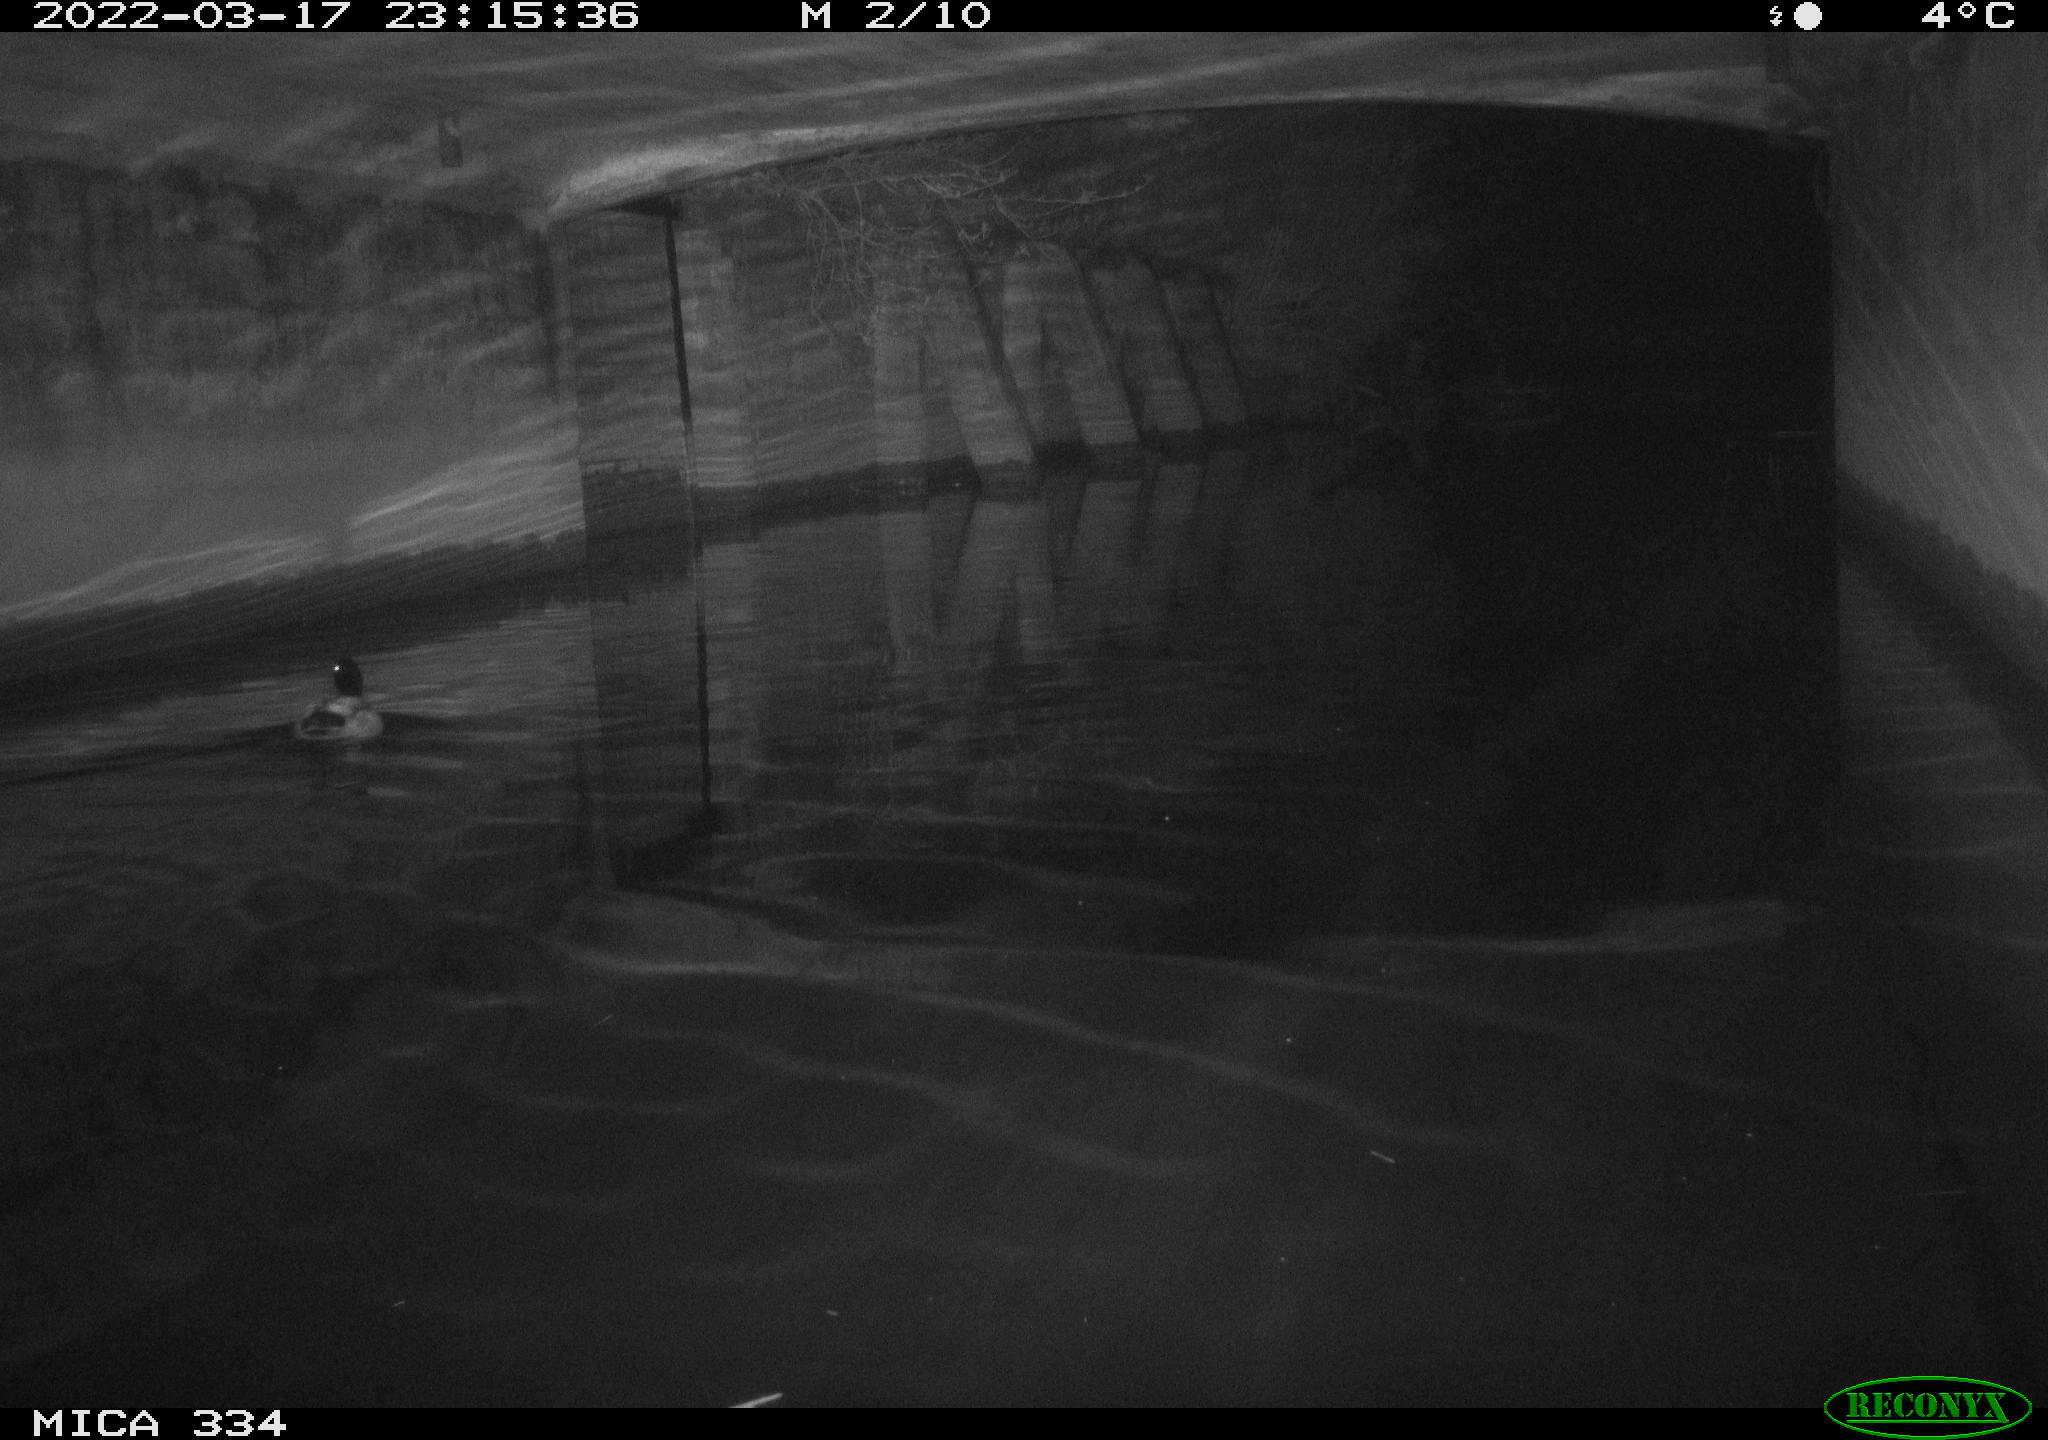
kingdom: Animalia
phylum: Chordata
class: Aves
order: Anseriformes
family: Anatidae
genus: Anas
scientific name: Anas platyrhynchos
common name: Mallard
